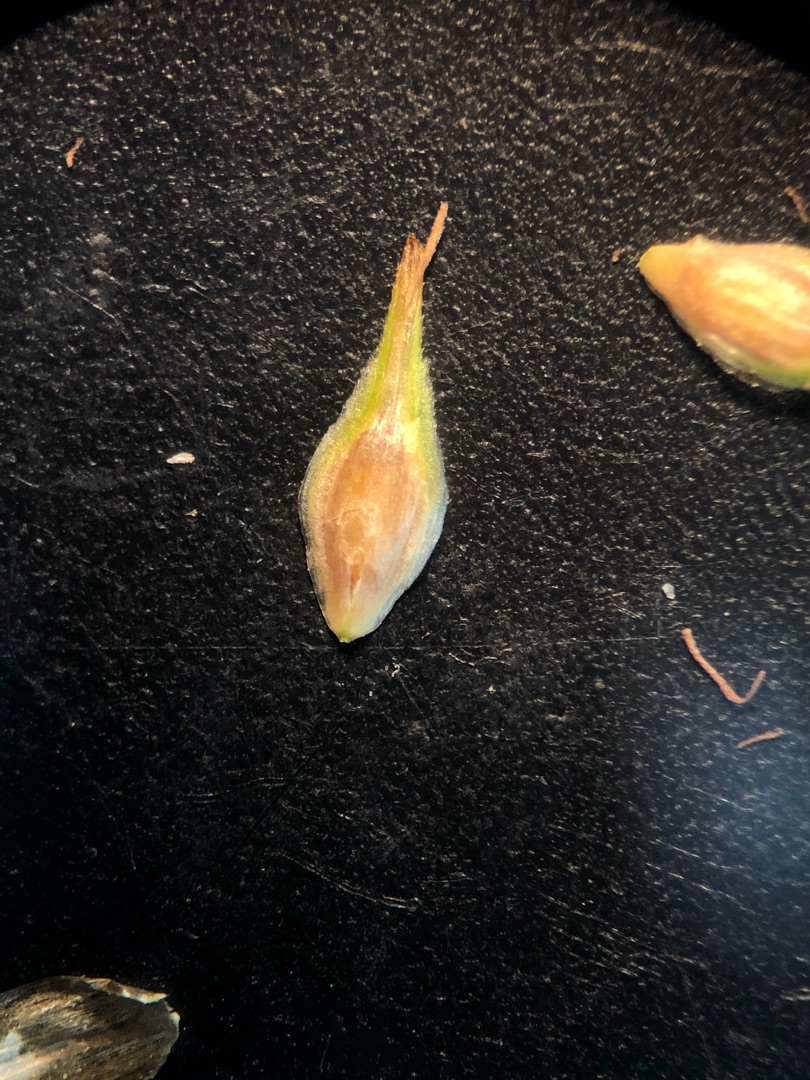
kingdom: Plantae
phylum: Tracheophyta
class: Liliopsida
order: Poales
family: Cyperaceae
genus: Carex
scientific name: Carex leporina
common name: Hare-star
